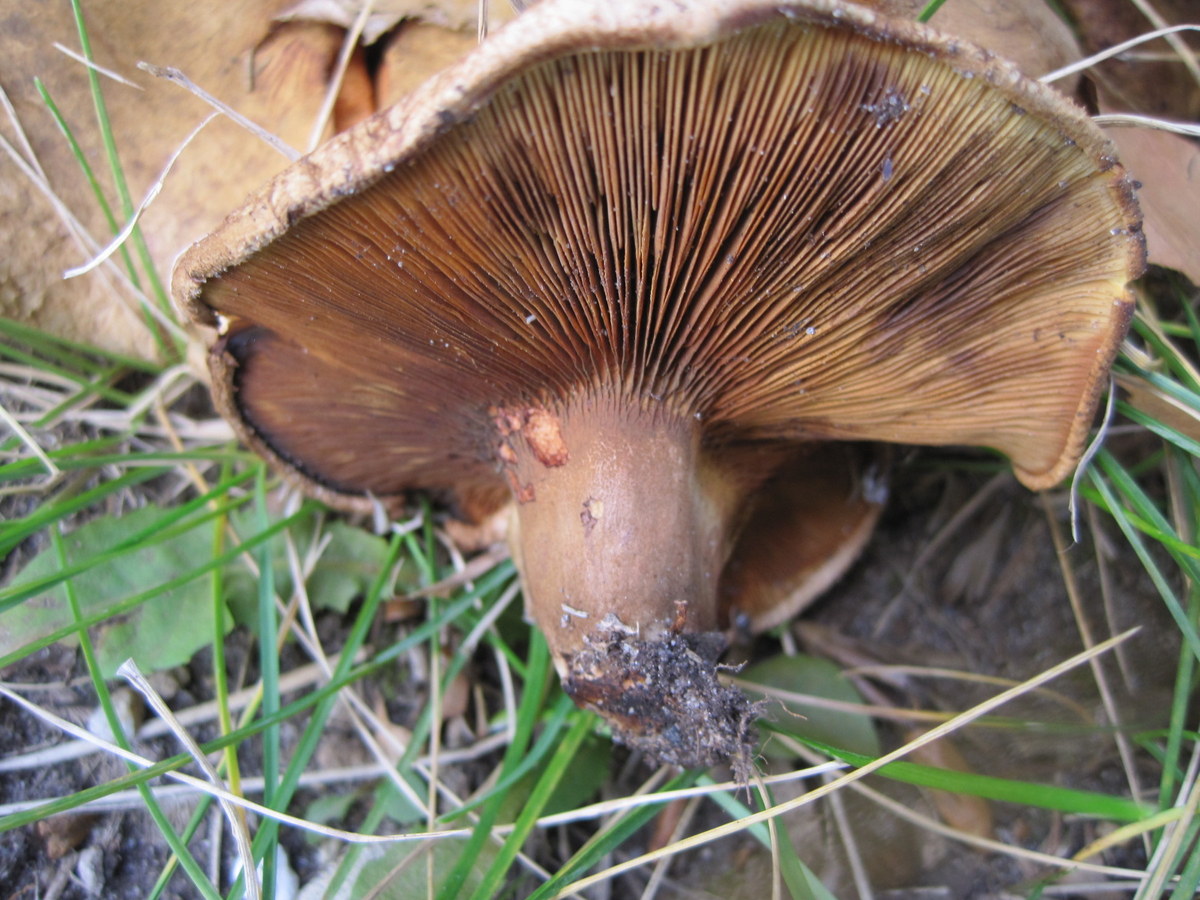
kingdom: Fungi
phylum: Basidiomycota
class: Agaricomycetes
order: Boletales
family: Paxillaceae
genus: Paxillus
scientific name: Paxillus ammoniavirescens
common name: olivensporet netbladhat
